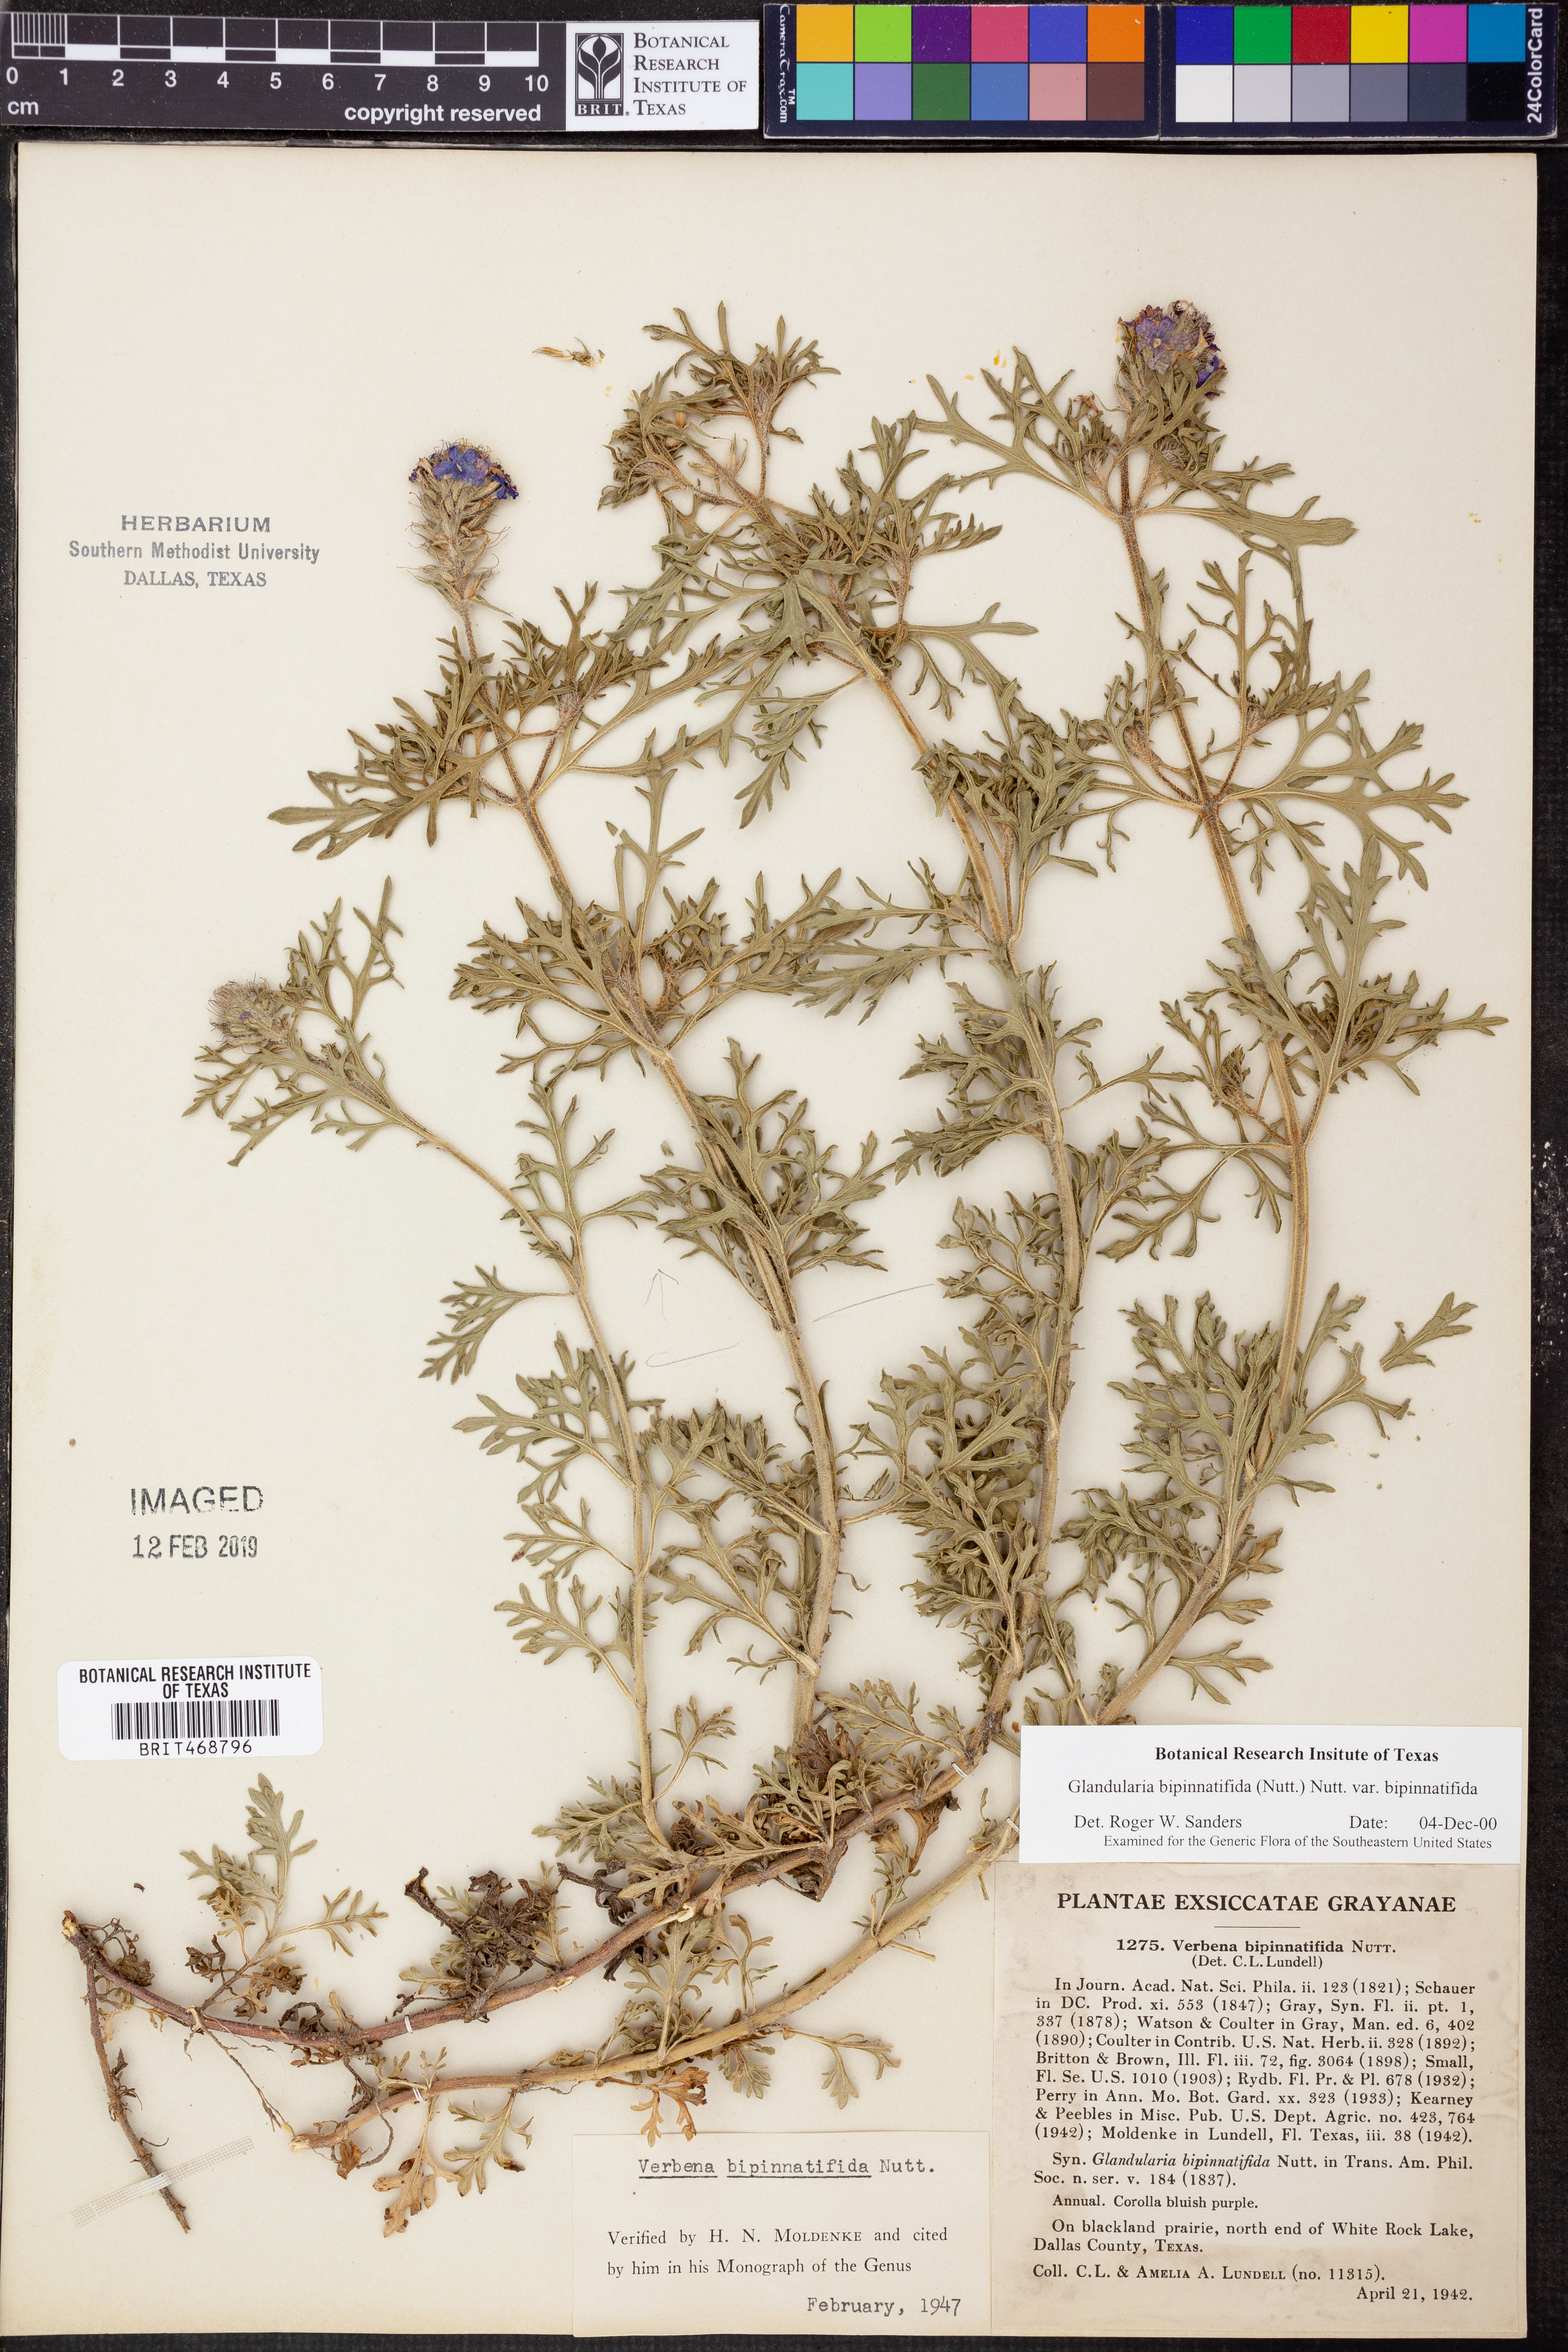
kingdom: Plantae
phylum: Tracheophyta
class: Magnoliopsida
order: Lamiales
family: Verbenaceae
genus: Verbena
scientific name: Verbena bipinnatifida
